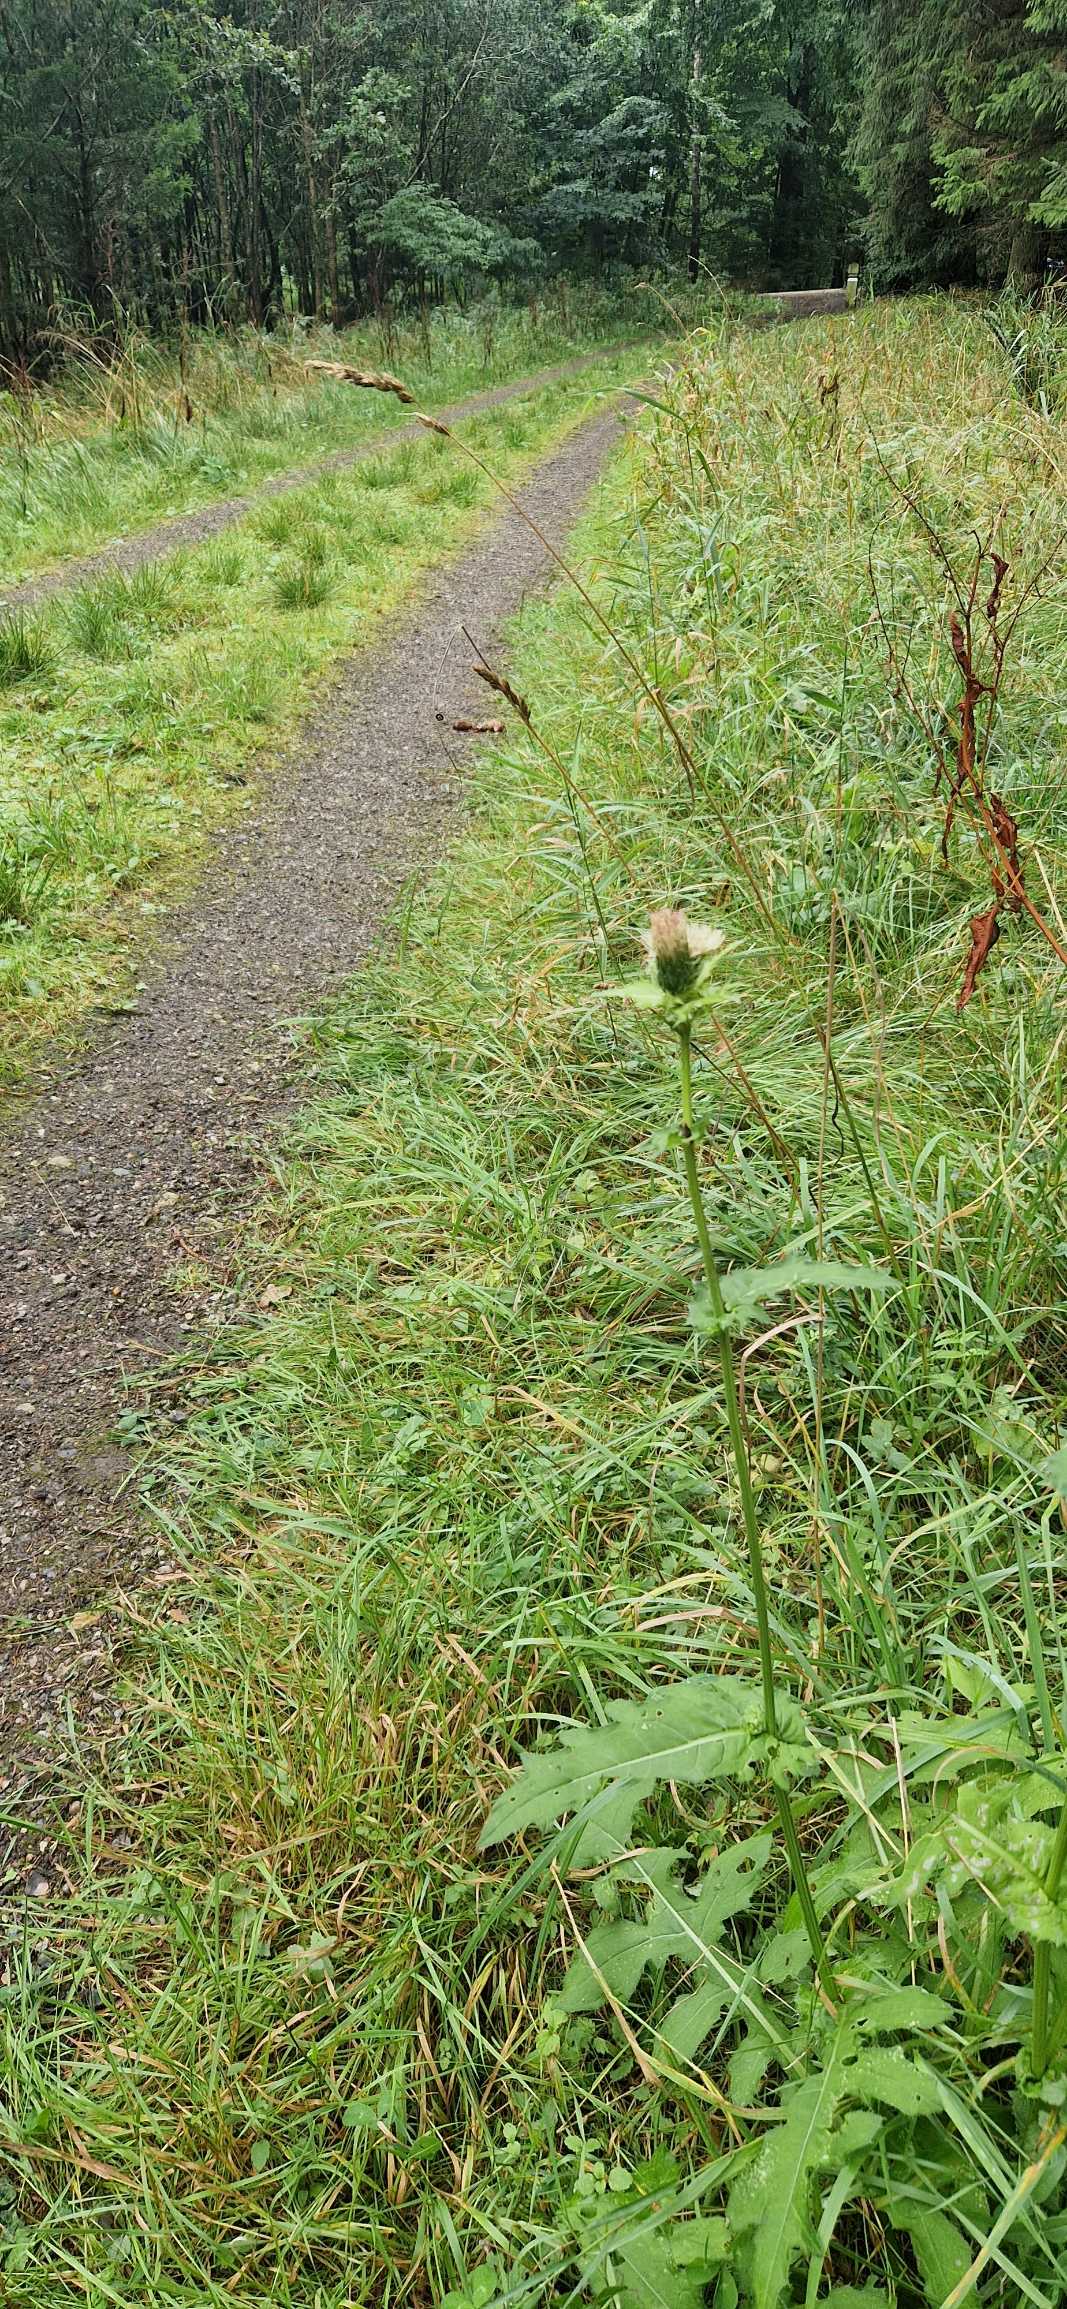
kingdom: Plantae
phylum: Tracheophyta
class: Magnoliopsida
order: Asterales
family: Asteraceae
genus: Cirsium
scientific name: Cirsium oleraceum
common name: Kål-tidsel
